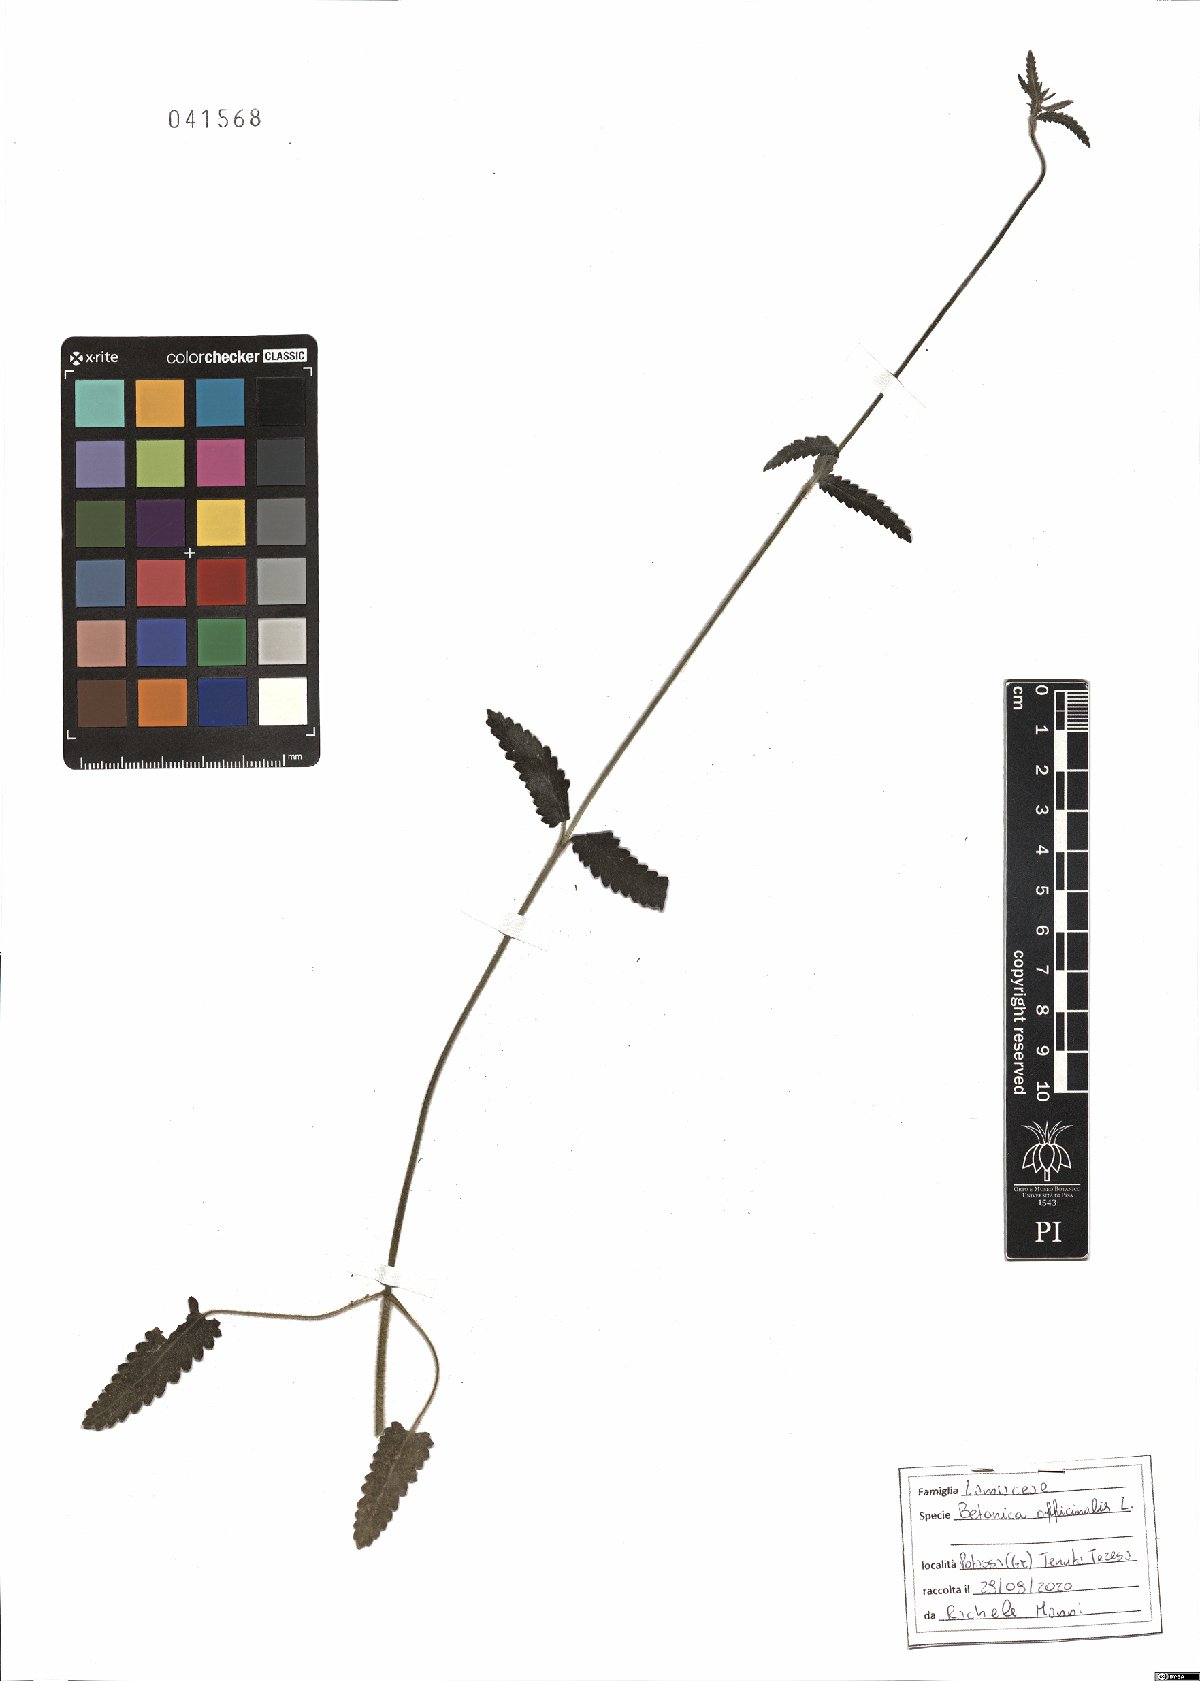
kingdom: Plantae
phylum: Tracheophyta
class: Magnoliopsida
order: Lamiales
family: Lamiaceae
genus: Betonica
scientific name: Betonica officinalis
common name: Bishop's-wort
